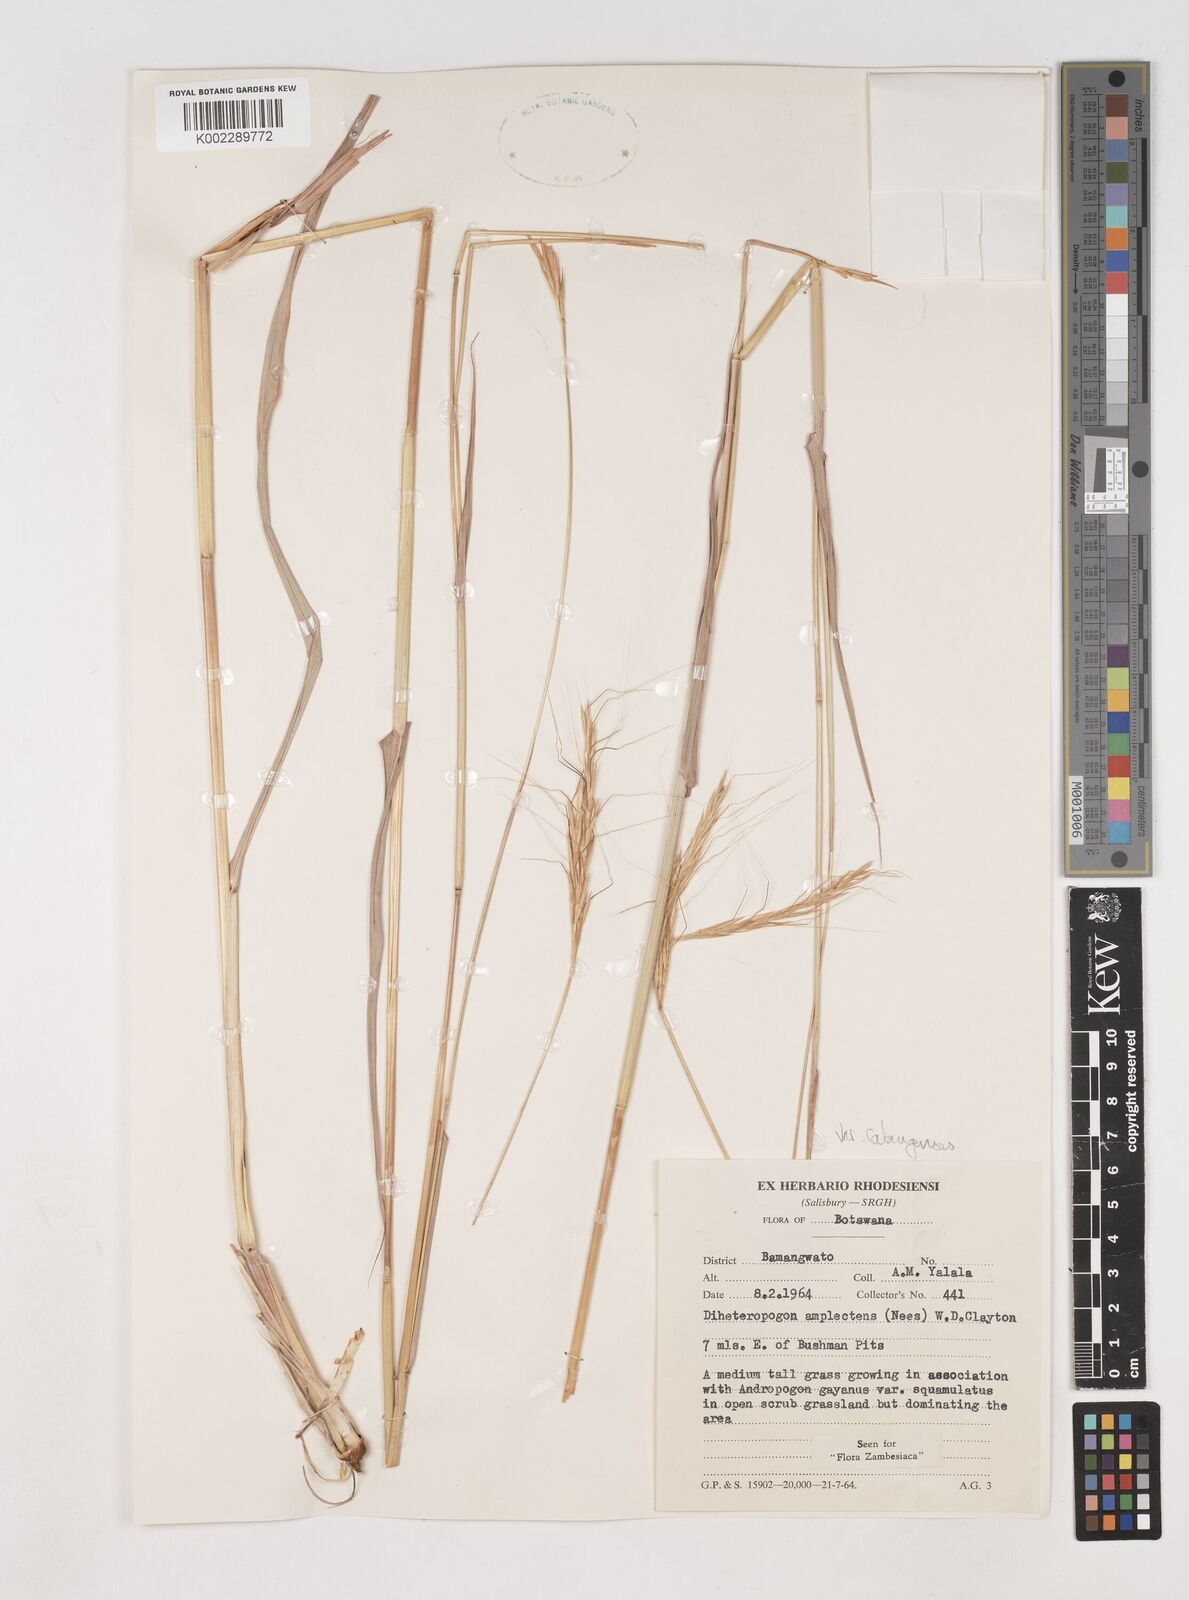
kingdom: Plantae
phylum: Tracheophyta
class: Liliopsida
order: Poales
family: Poaceae
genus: Diheteropogon
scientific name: Diheteropogon amplectens
